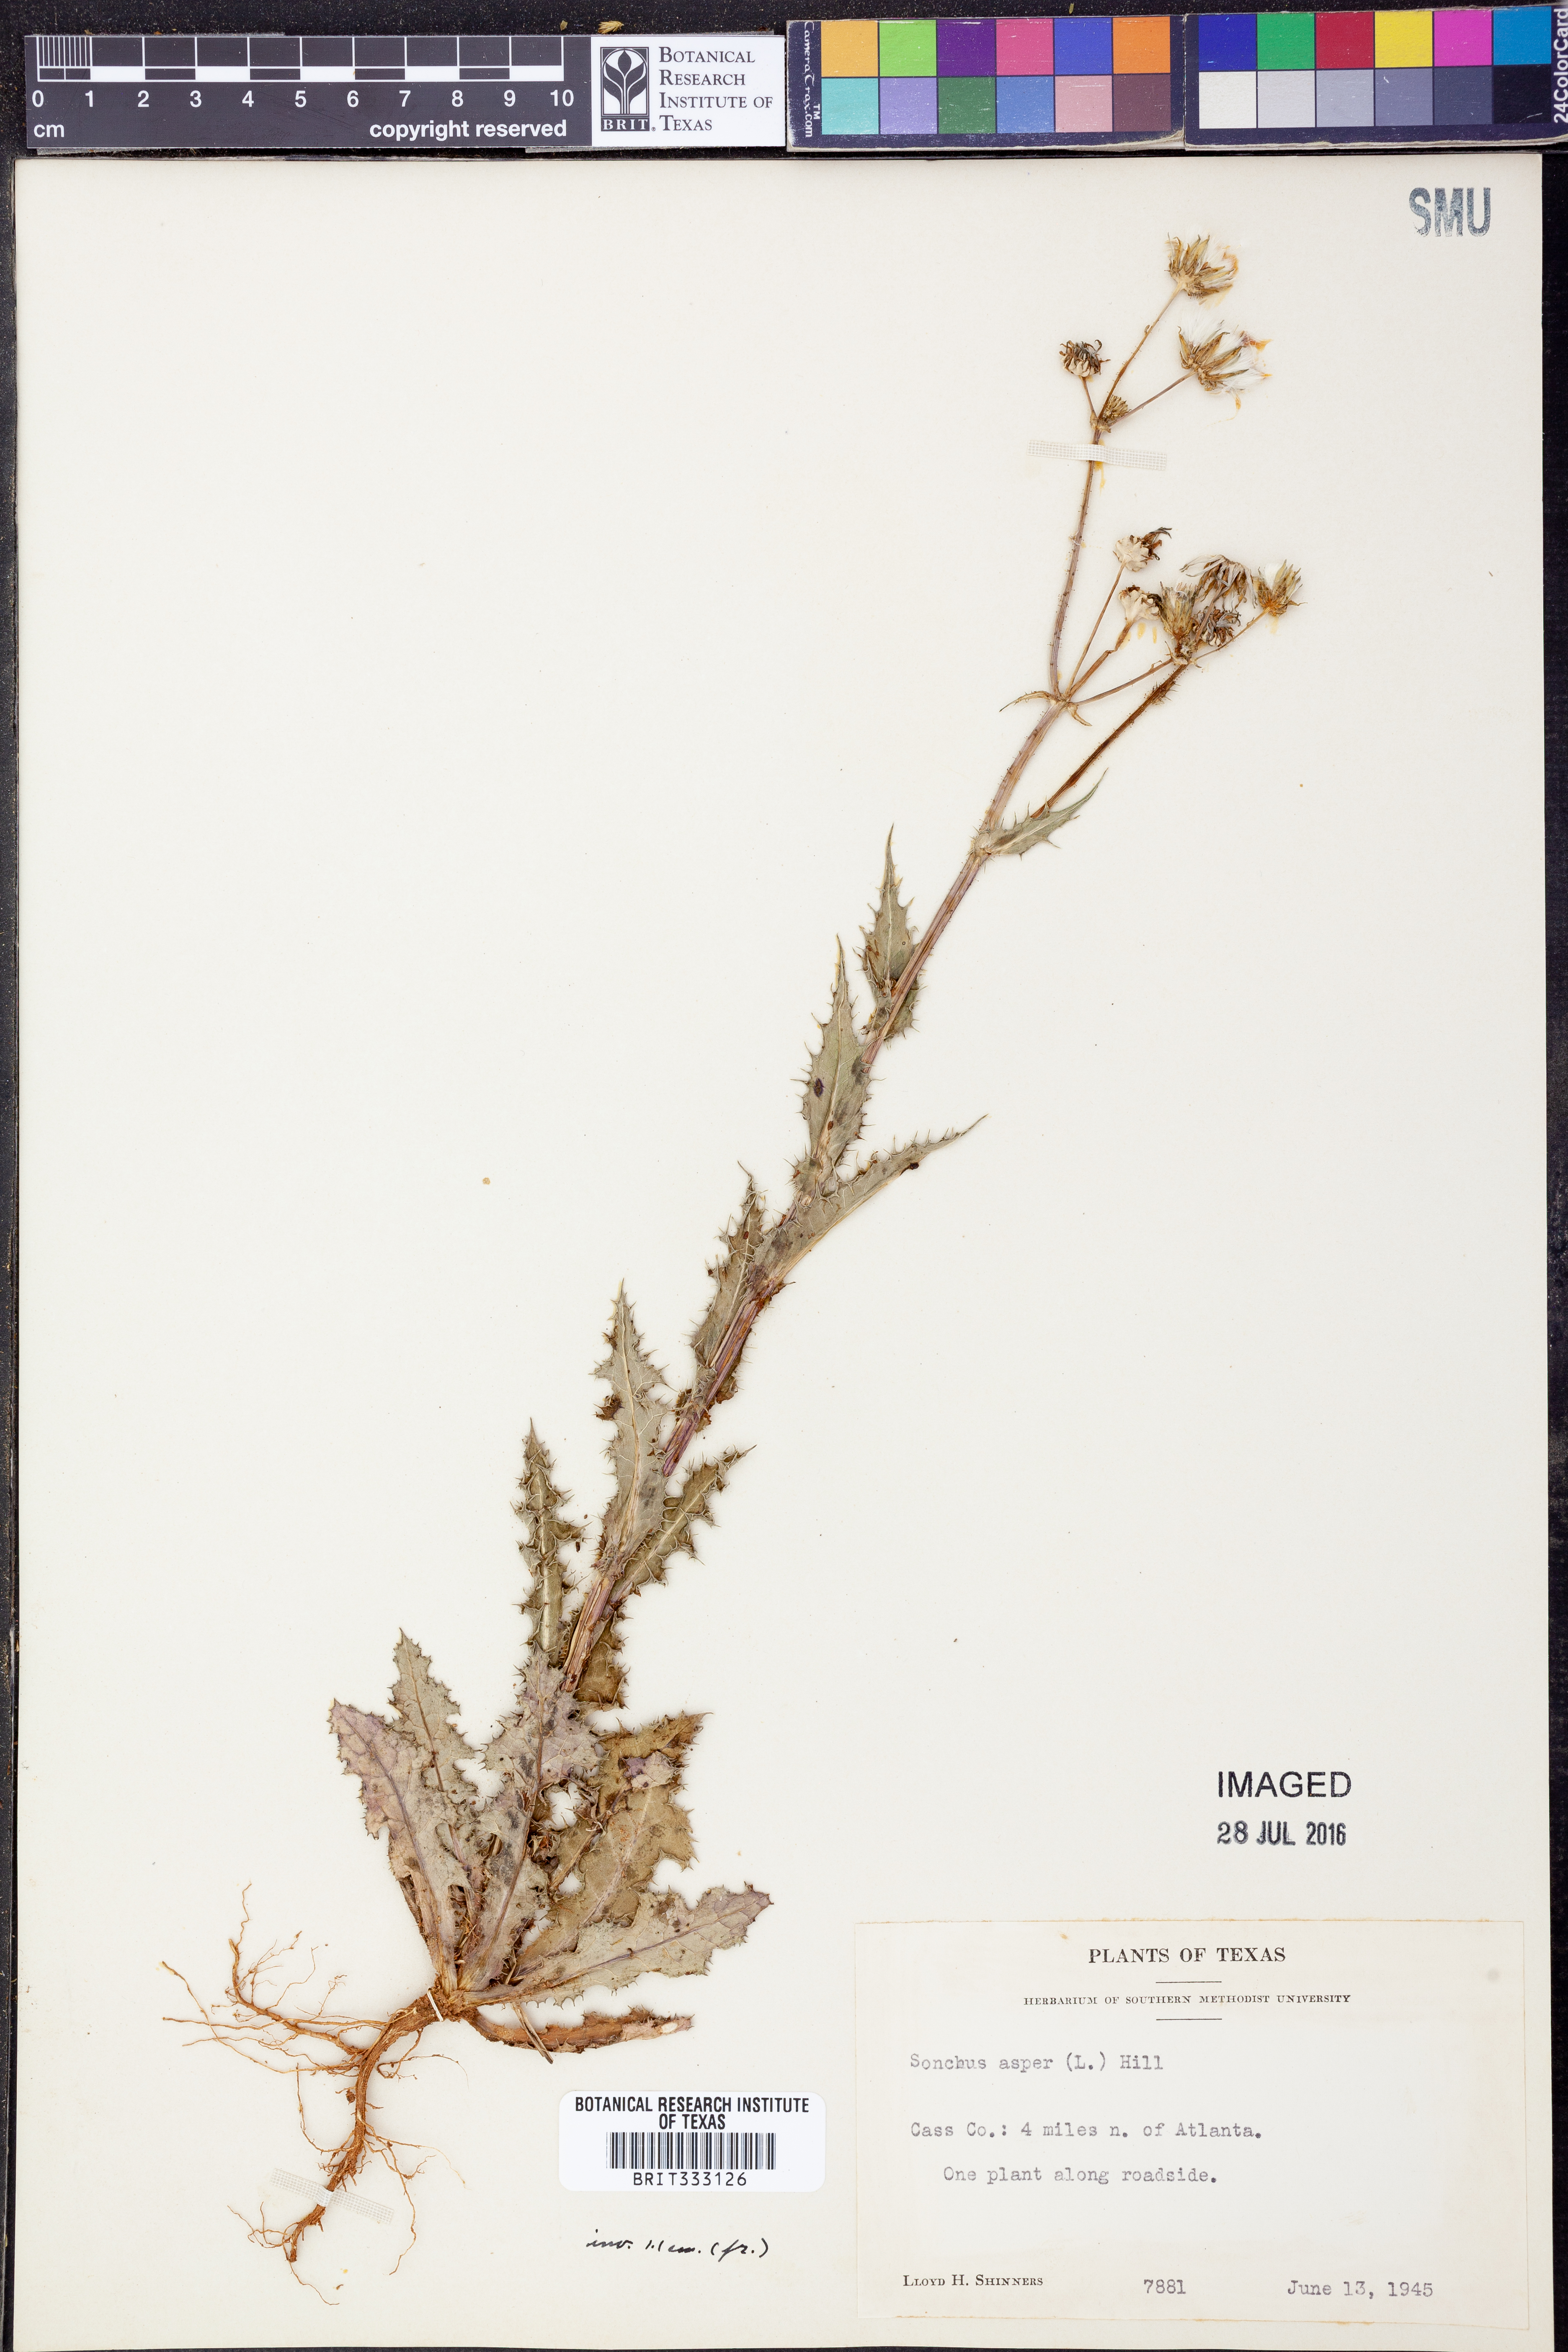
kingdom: Plantae
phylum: Tracheophyta
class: Magnoliopsida
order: Asterales
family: Asteraceae
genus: Sonchus
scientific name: Sonchus asper
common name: Prickly sow-thistle
